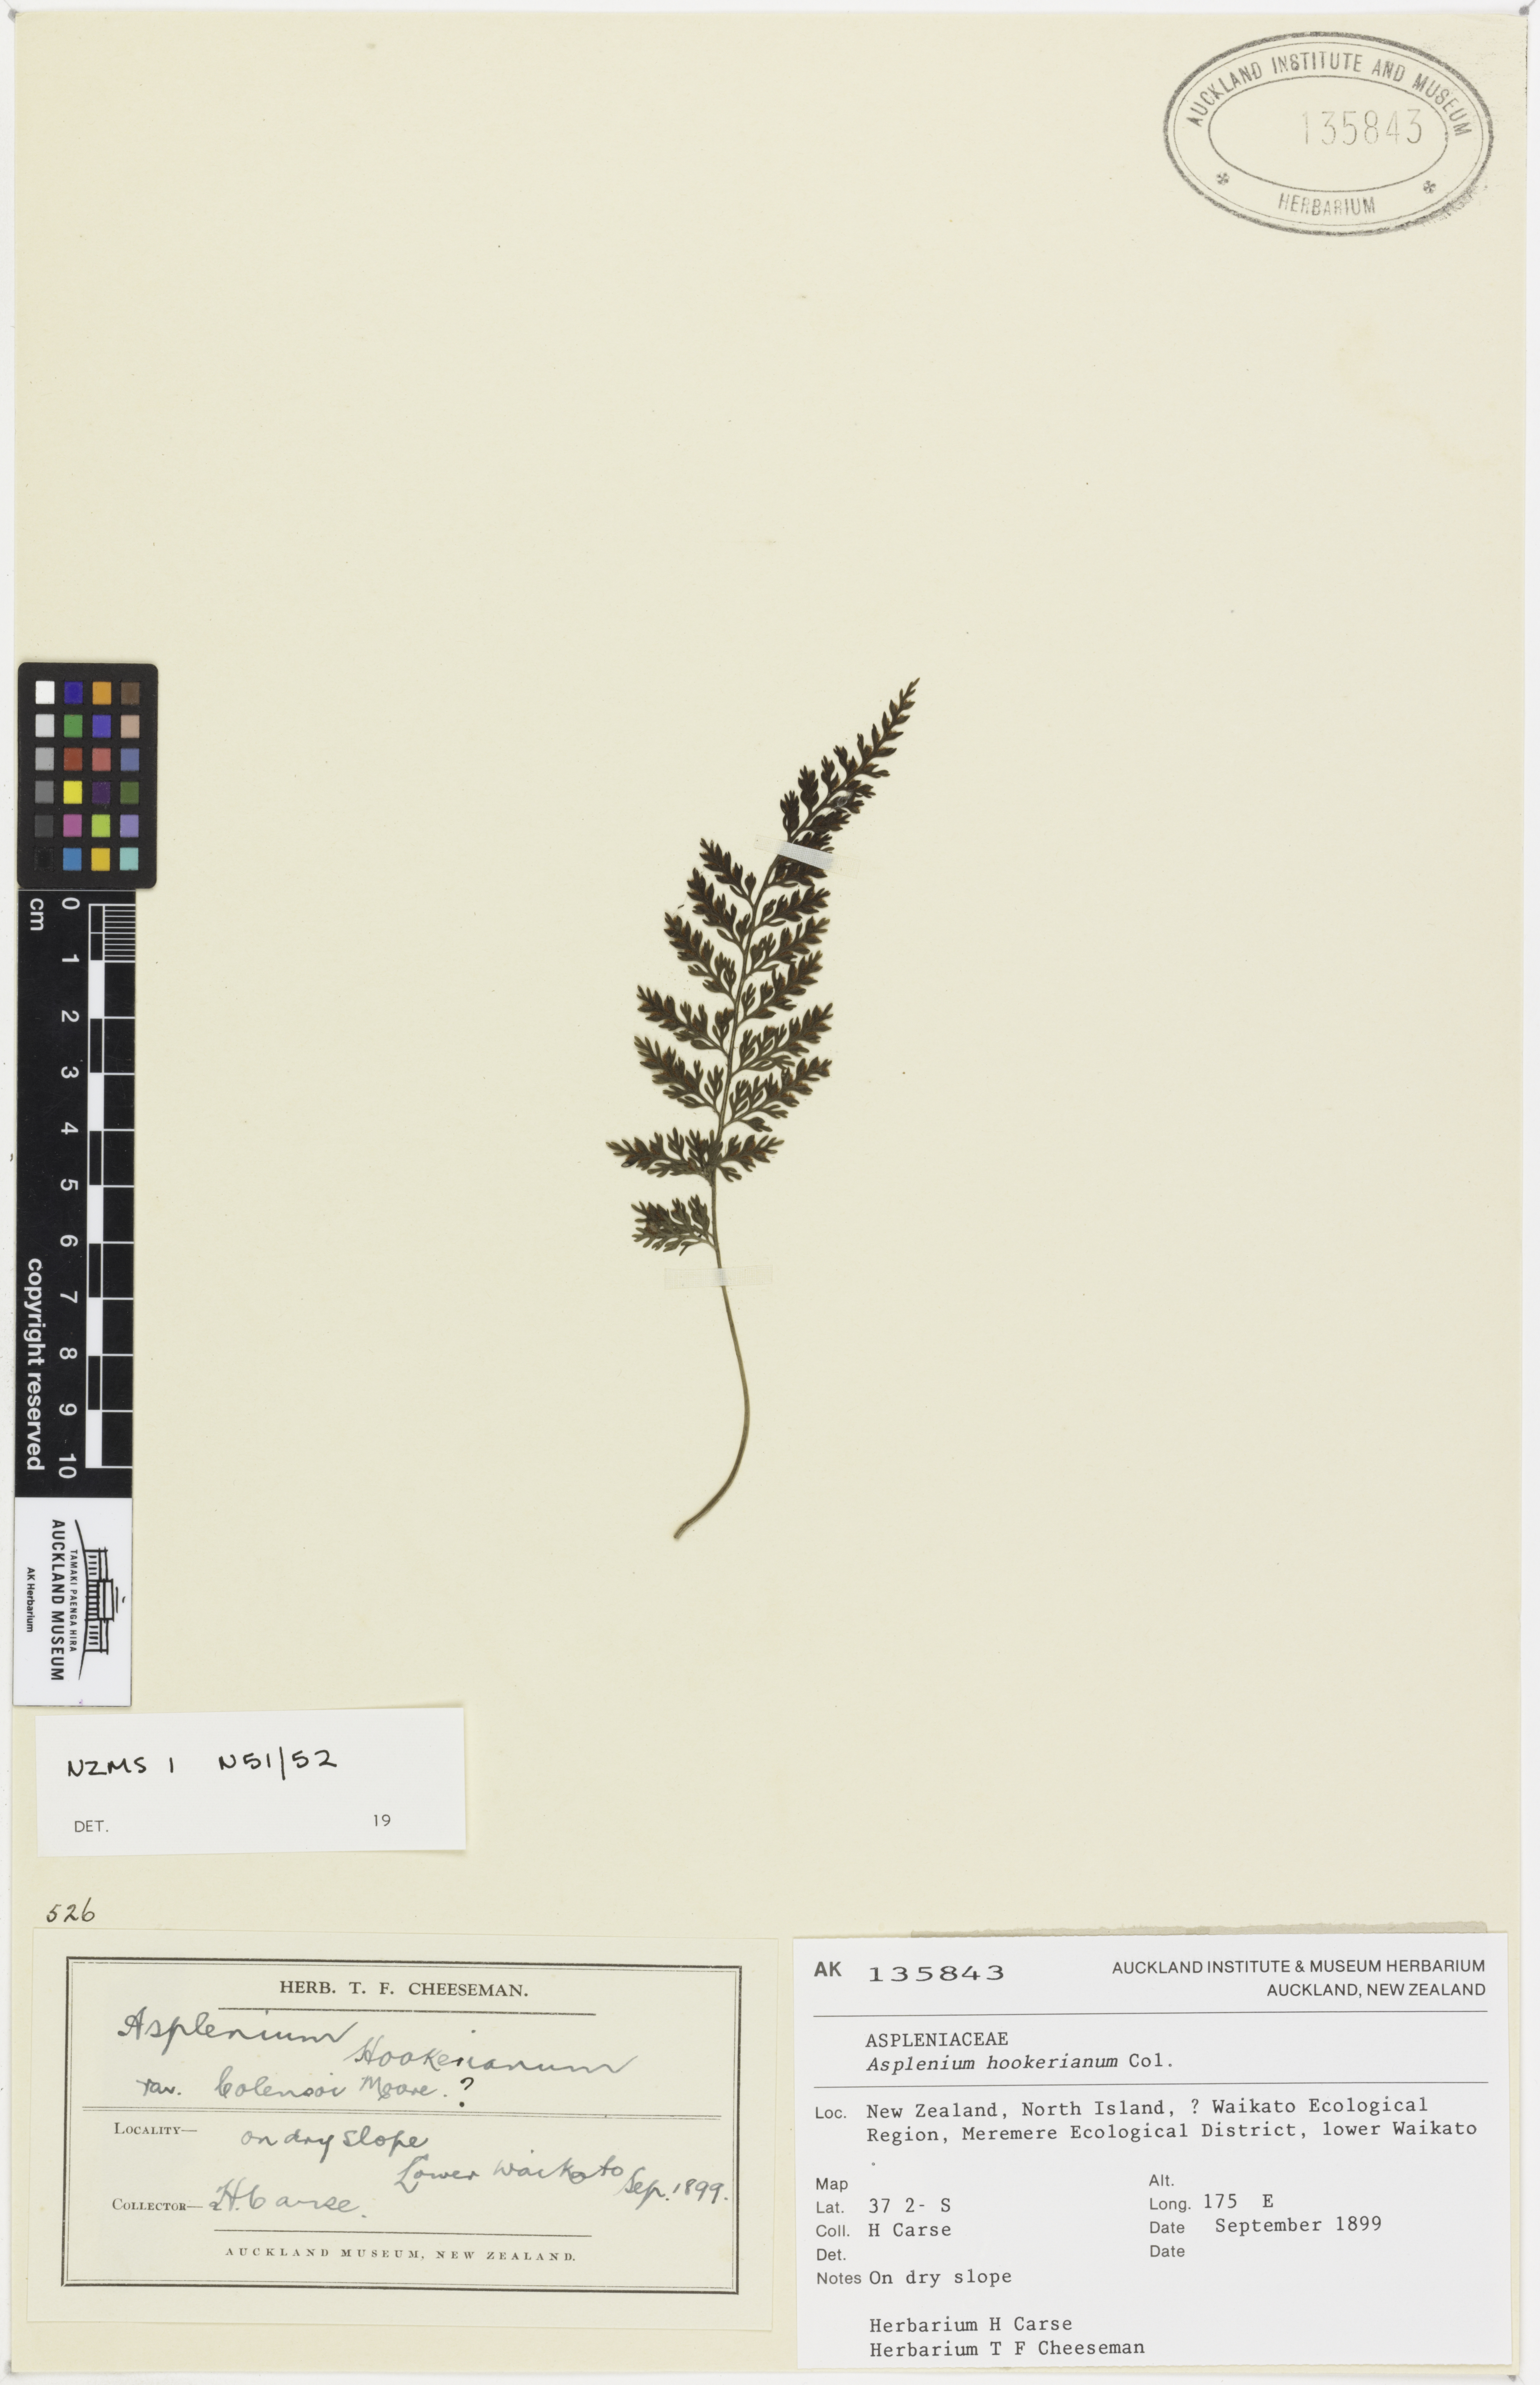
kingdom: Plantae
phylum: Tracheophyta
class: Polypodiopsida
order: Polypodiales
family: Aspleniaceae
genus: Asplenium
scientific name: Asplenium hookerianum
